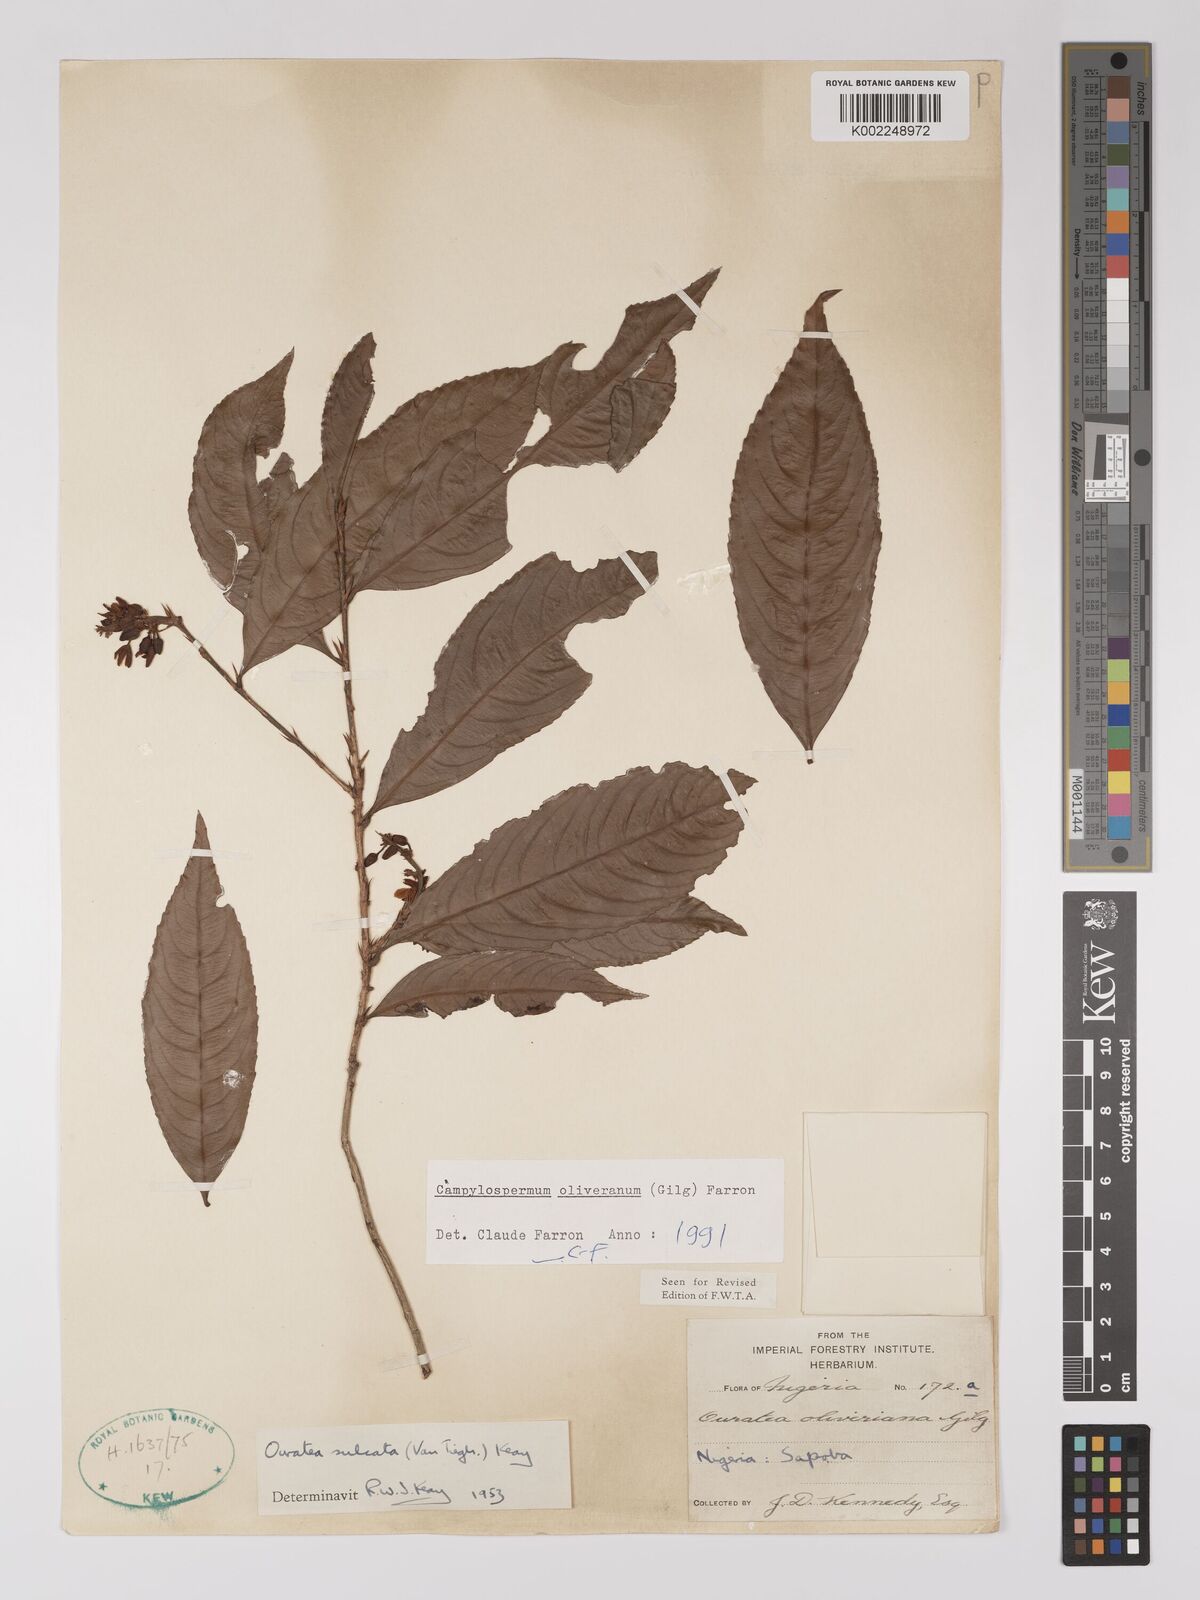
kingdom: Plantae
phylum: Tracheophyta
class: Magnoliopsida
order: Malpighiales
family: Ochnaceae
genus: Campylospermum
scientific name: Campylospermum oliverianum
